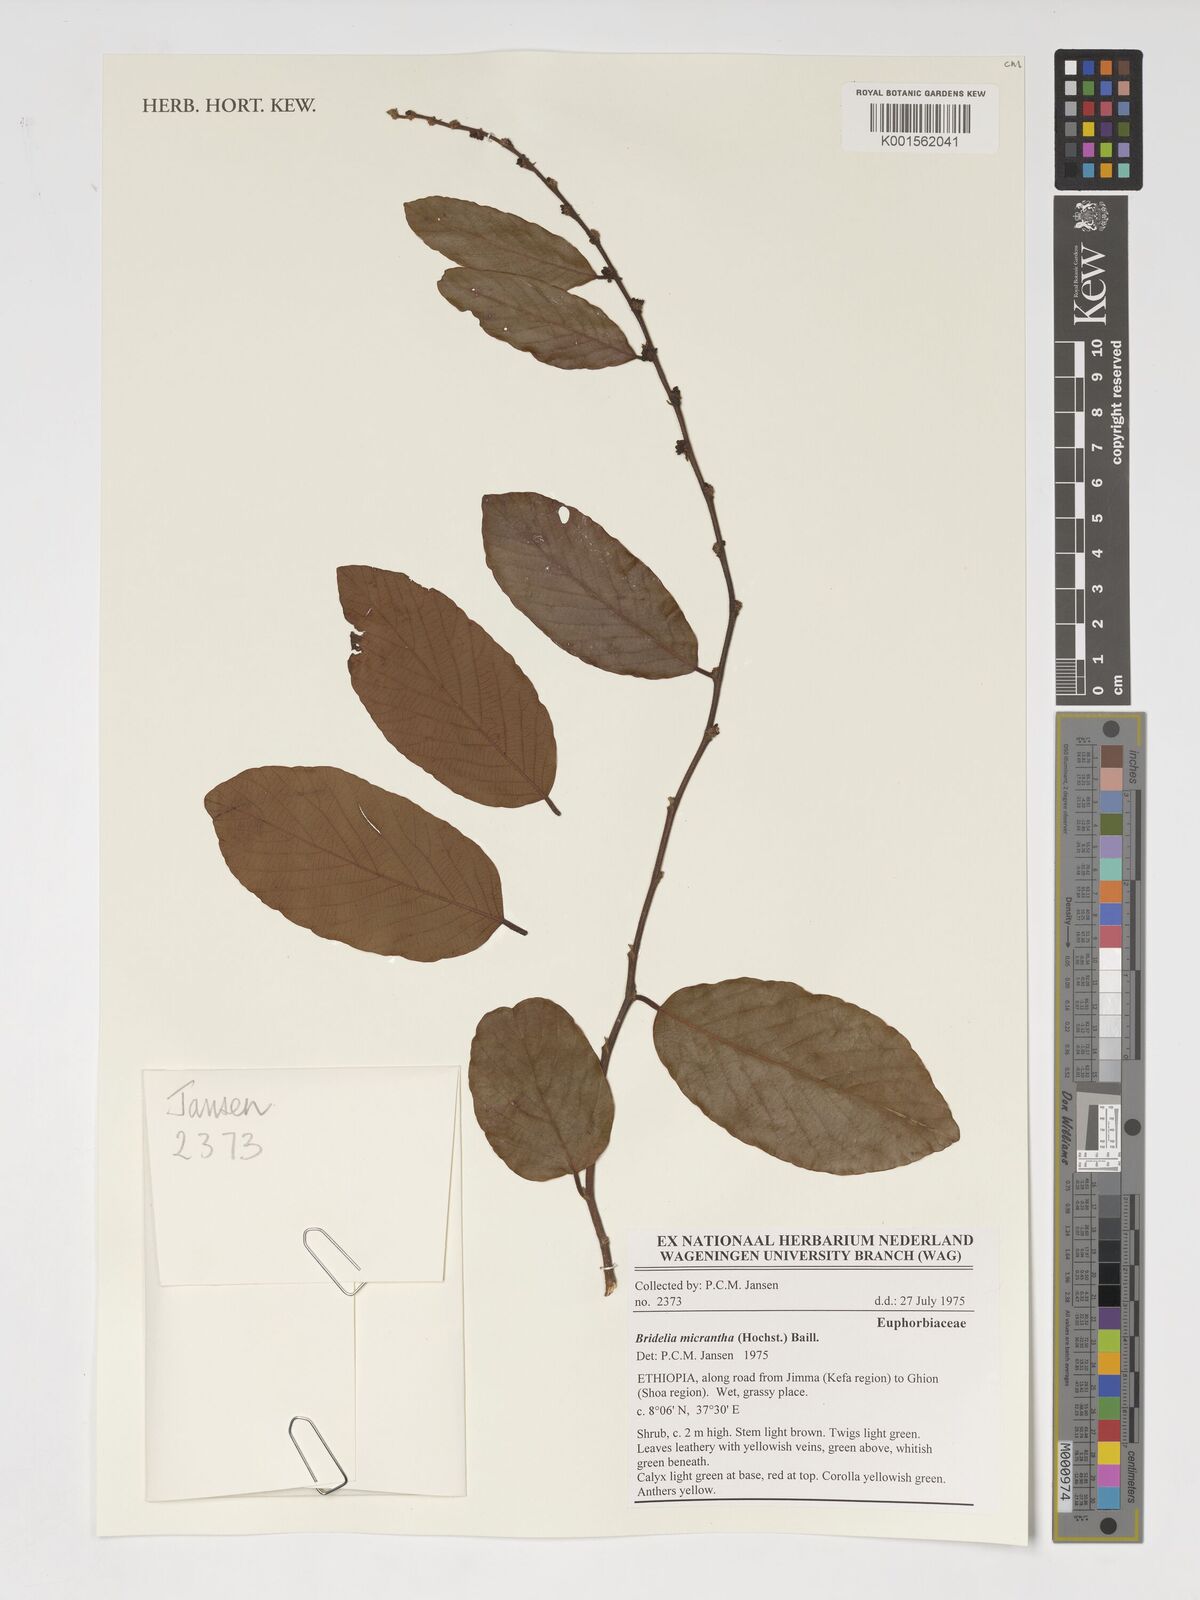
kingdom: Plantae
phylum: Tracheophyta
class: Magnoliopsida
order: Malpighiales
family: Phyllanthaceae
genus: Bridelia
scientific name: Bridelia micrantha
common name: Bridelia
